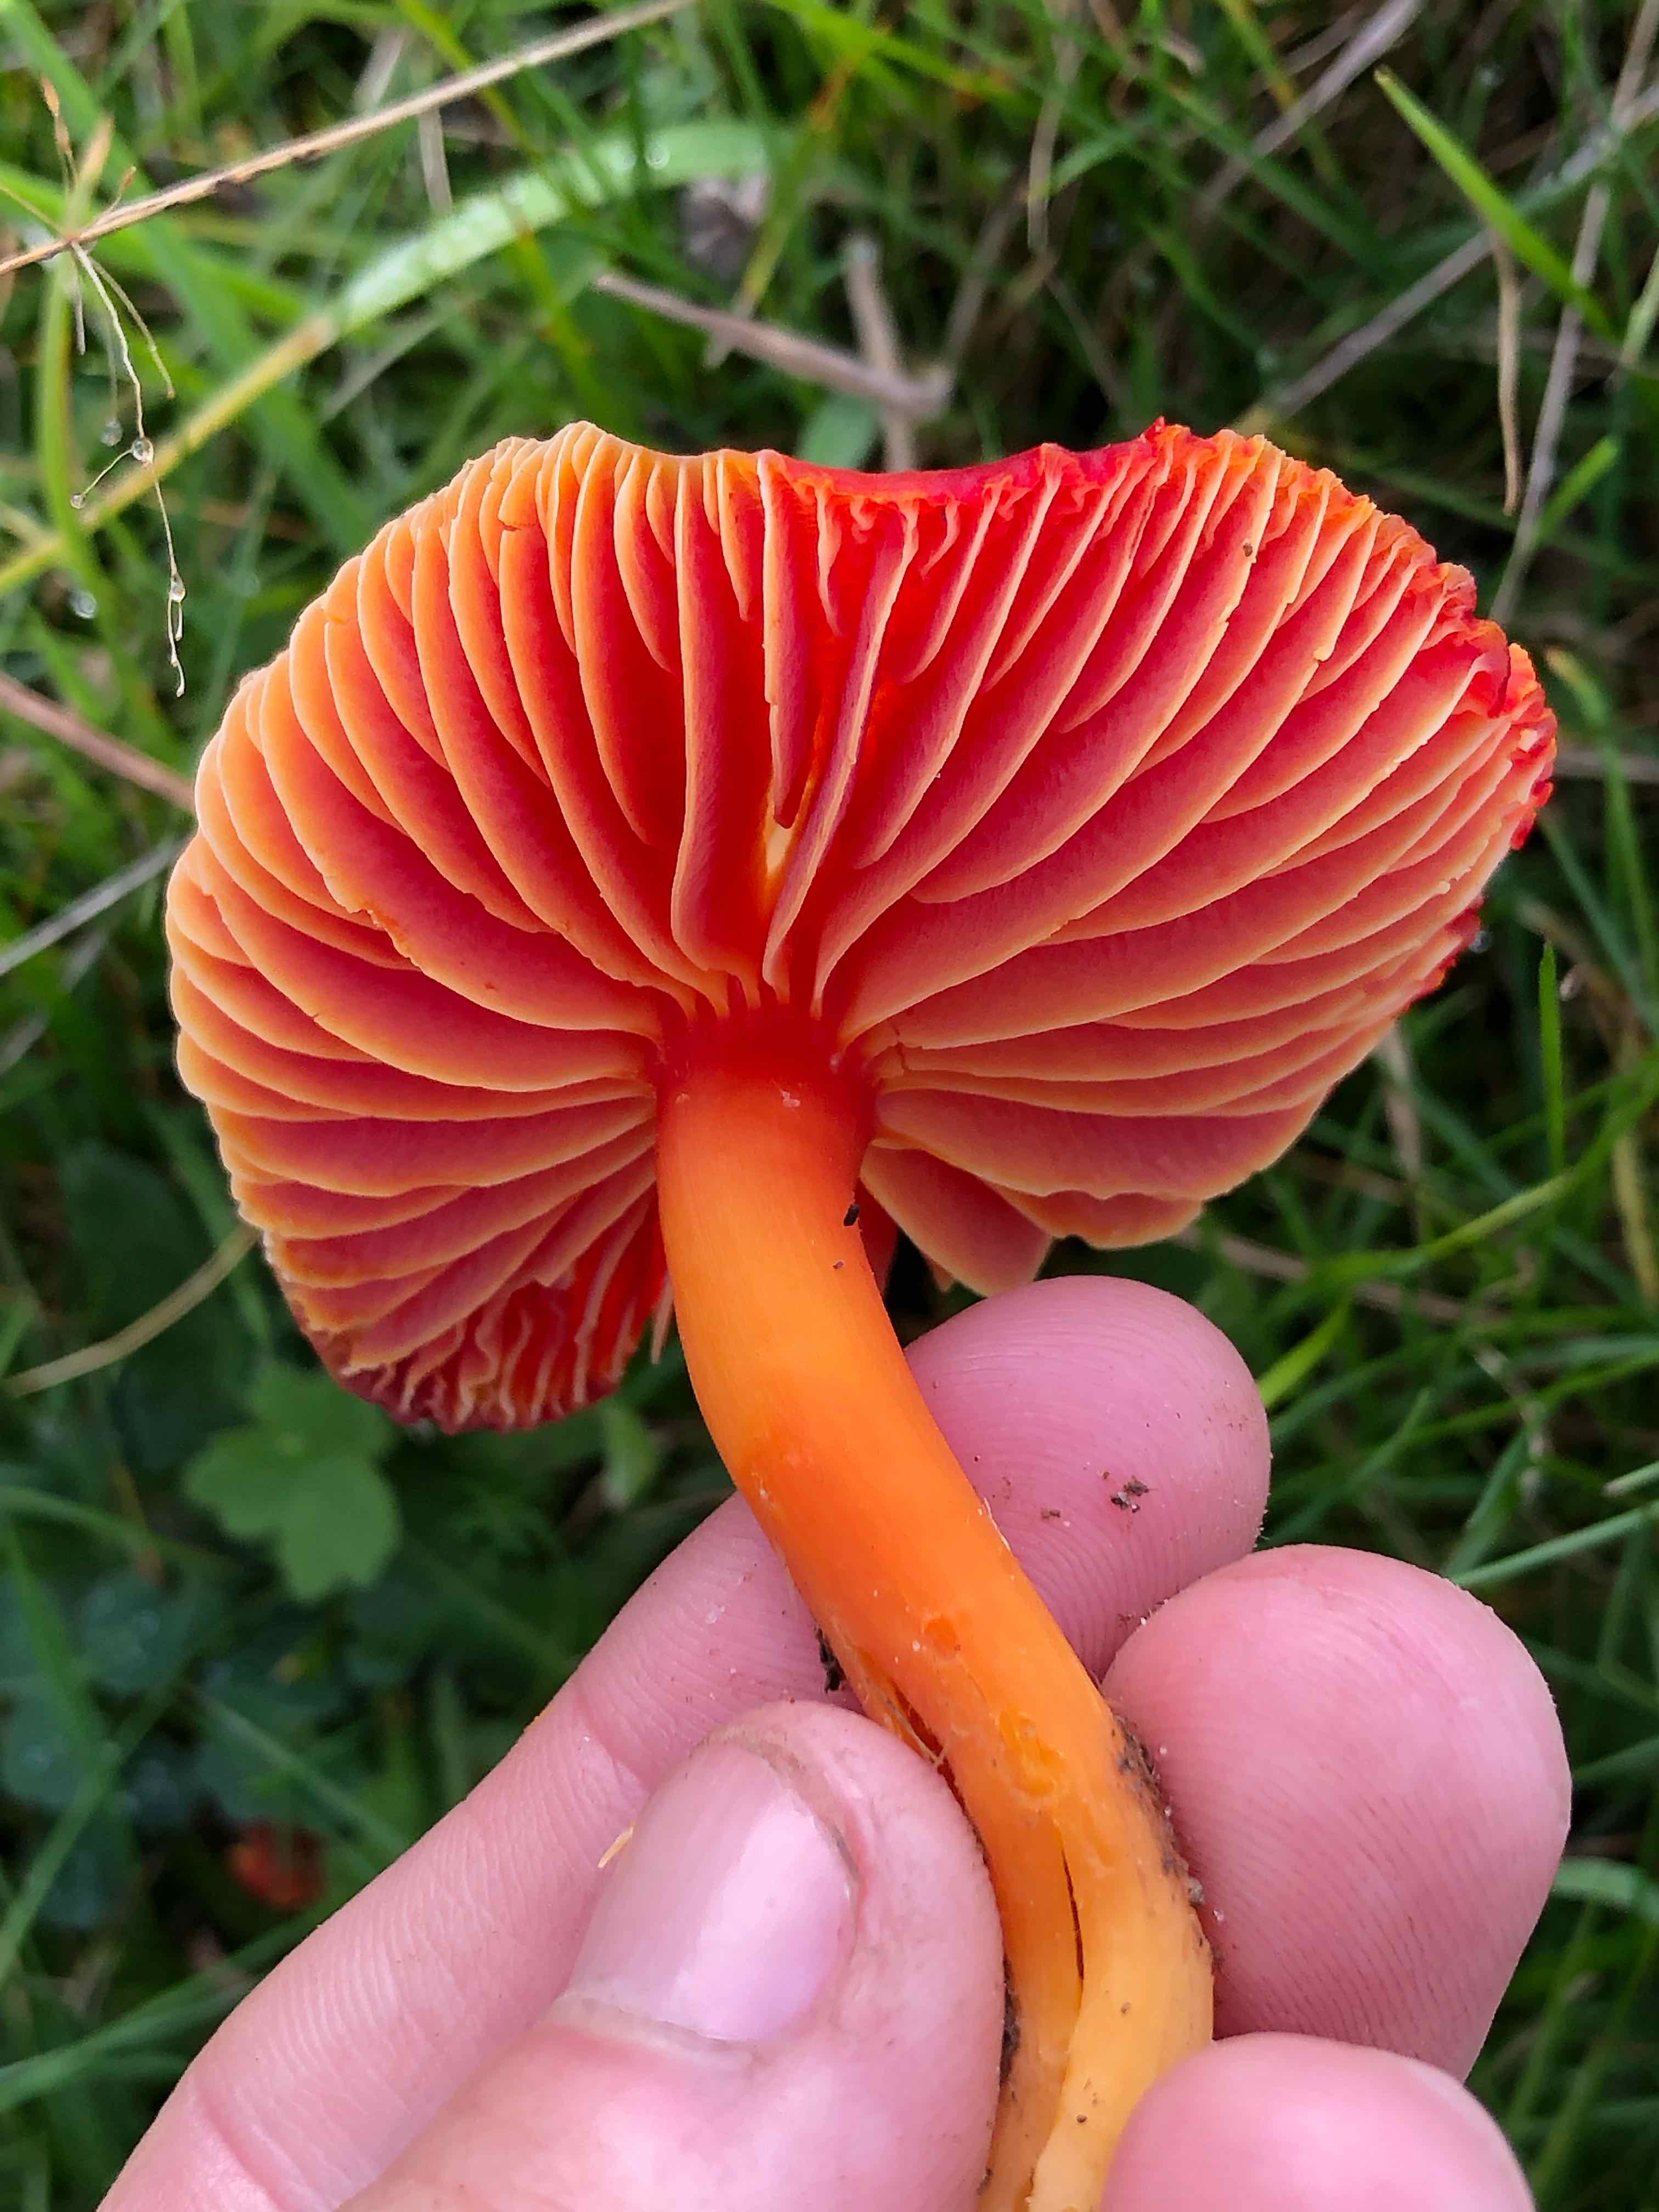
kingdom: Fungi
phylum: Basidiomycota
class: Agaricomycetes
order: Agaricales
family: Hygrophoraceae
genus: Hygrocybe
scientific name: Hygrocybe coccinea
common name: cinnober-vokshat
